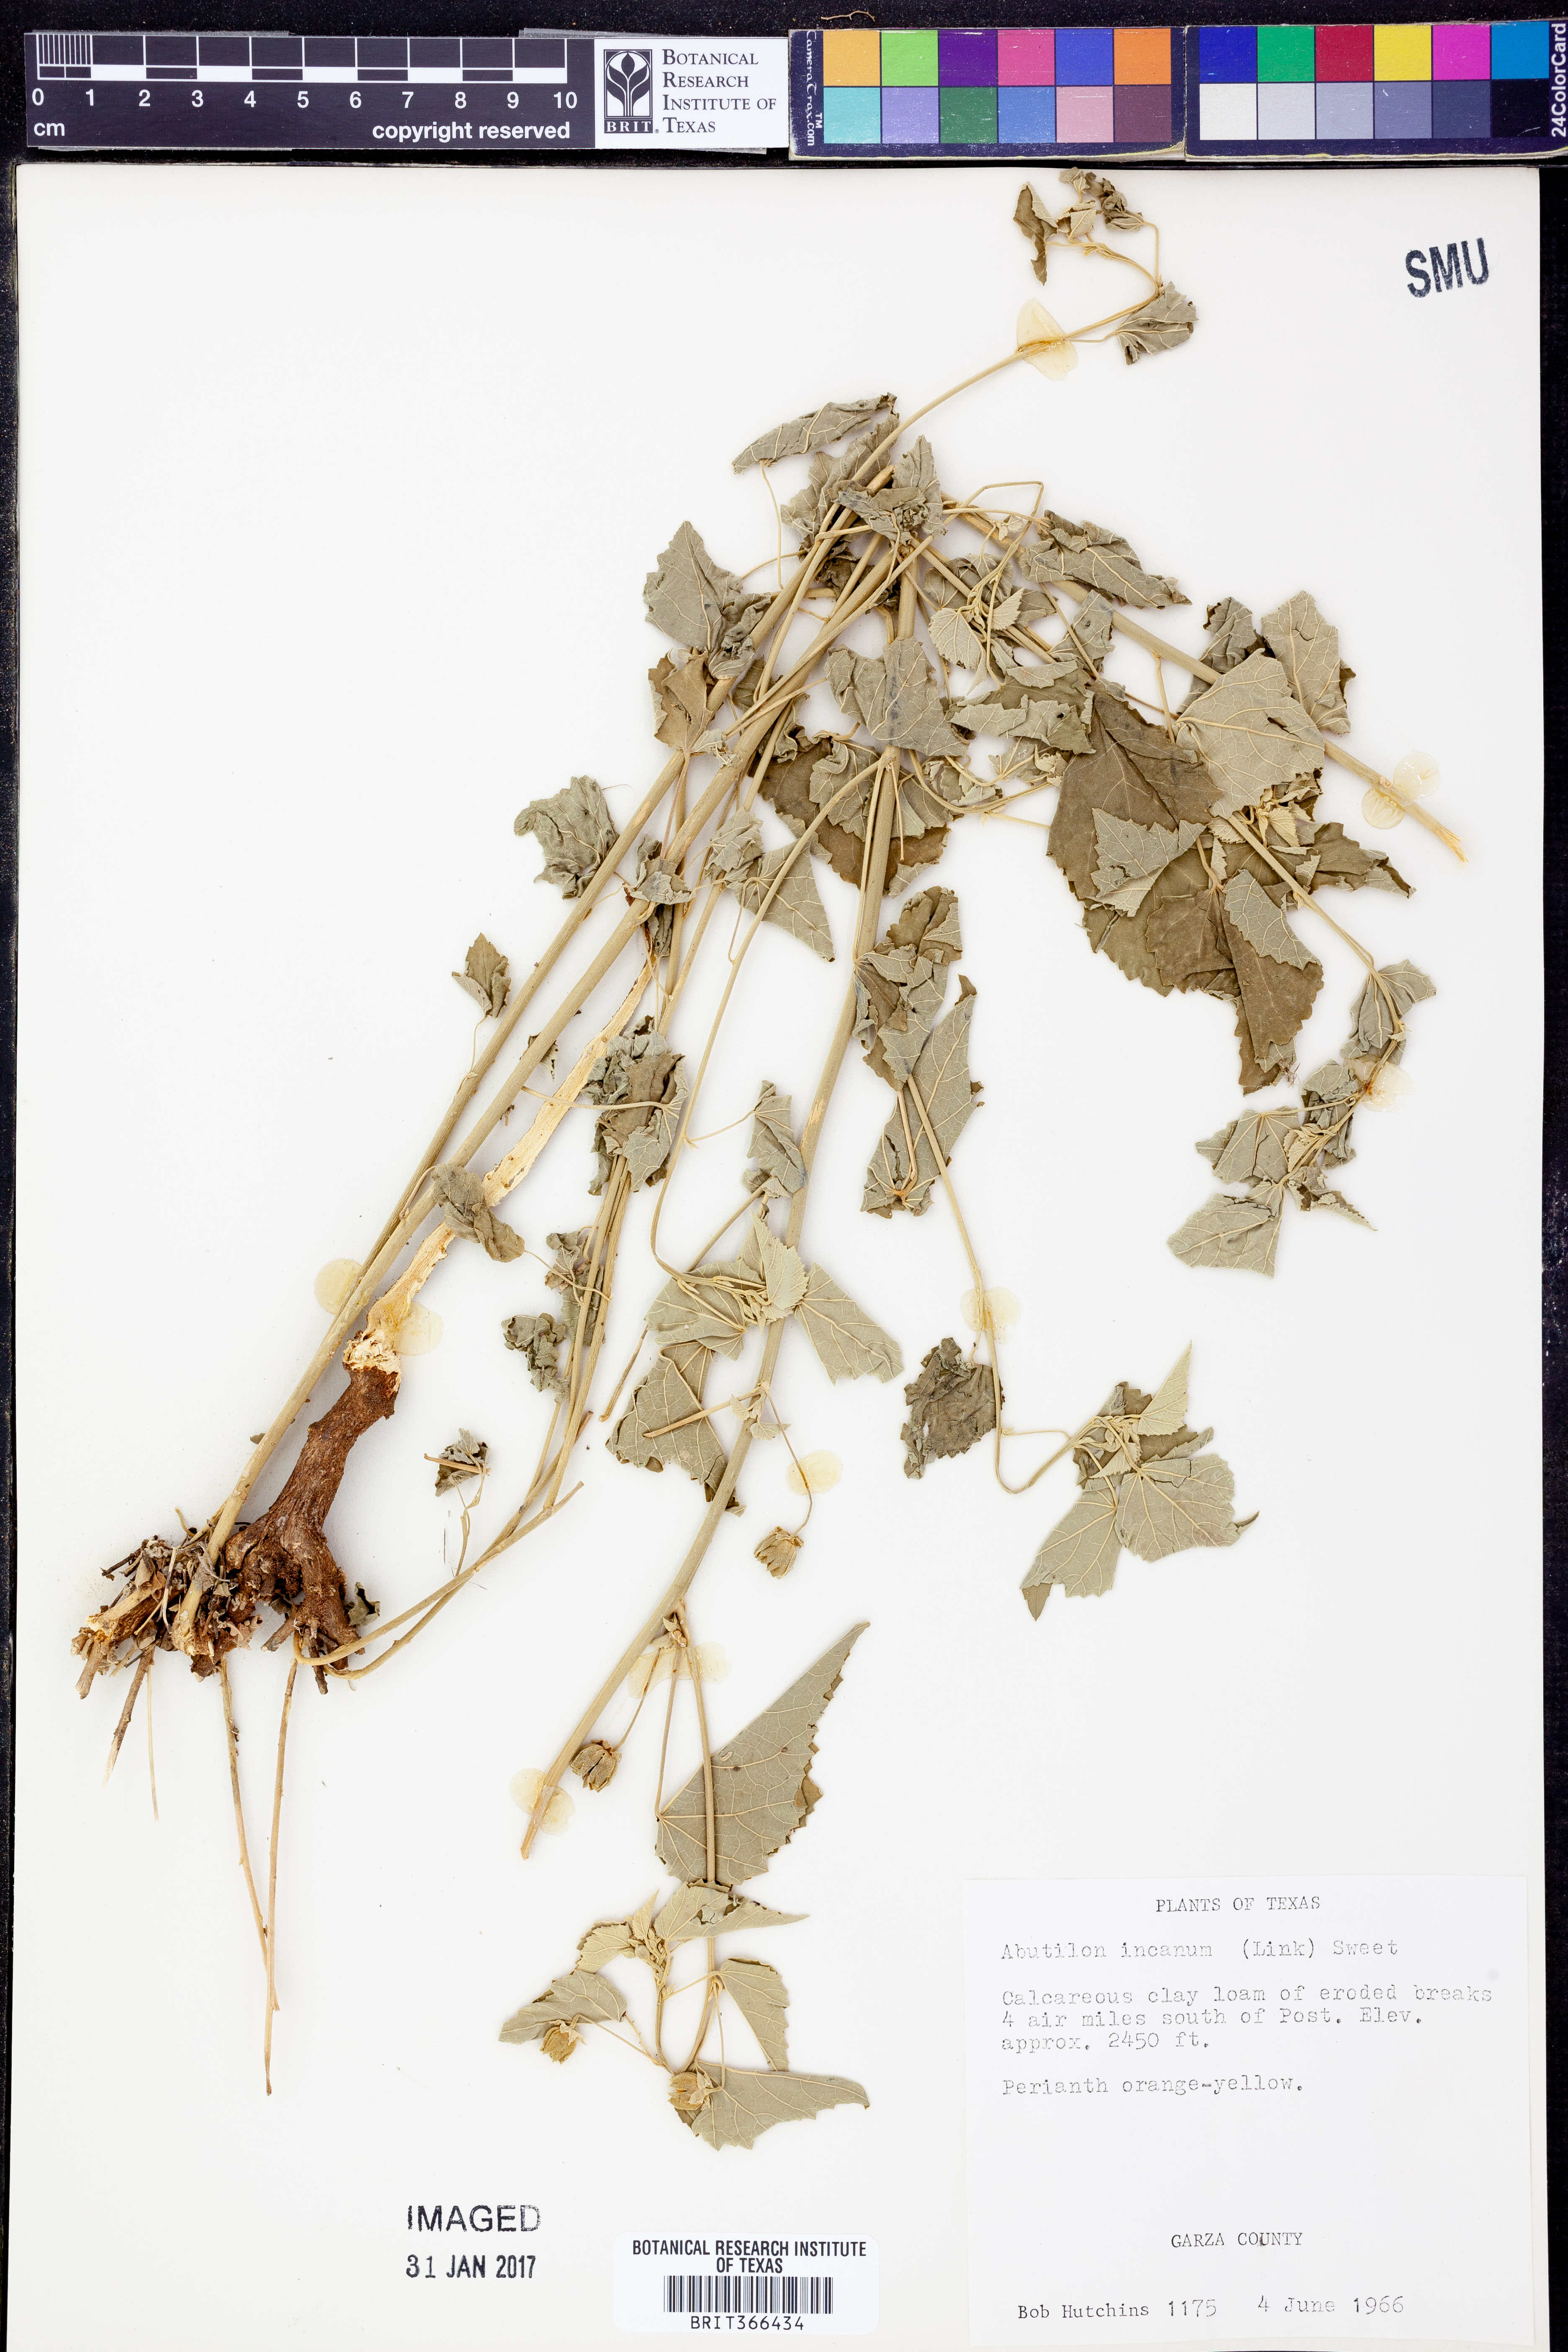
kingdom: Plantae
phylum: Tracheophyta
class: Magnoliopsida
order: Malvales
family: Malvaceae
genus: Abutilon
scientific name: Abutilon incanum
